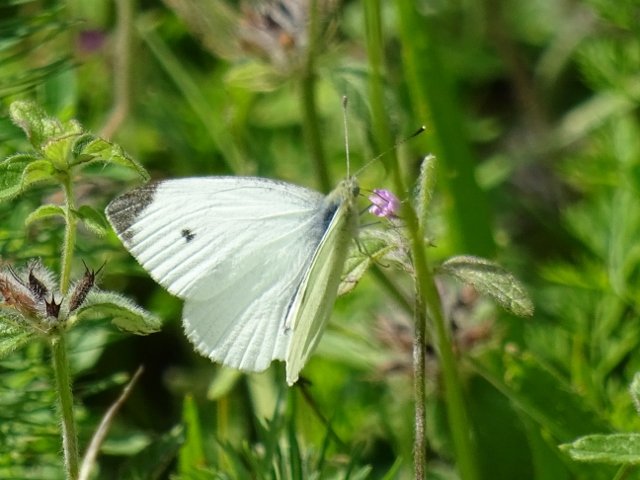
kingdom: Animalia
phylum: Arthropoda
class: Insecta
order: Lepidoptera
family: Pieridae
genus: Pieris
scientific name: Pieris rapae
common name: Cabbage White
